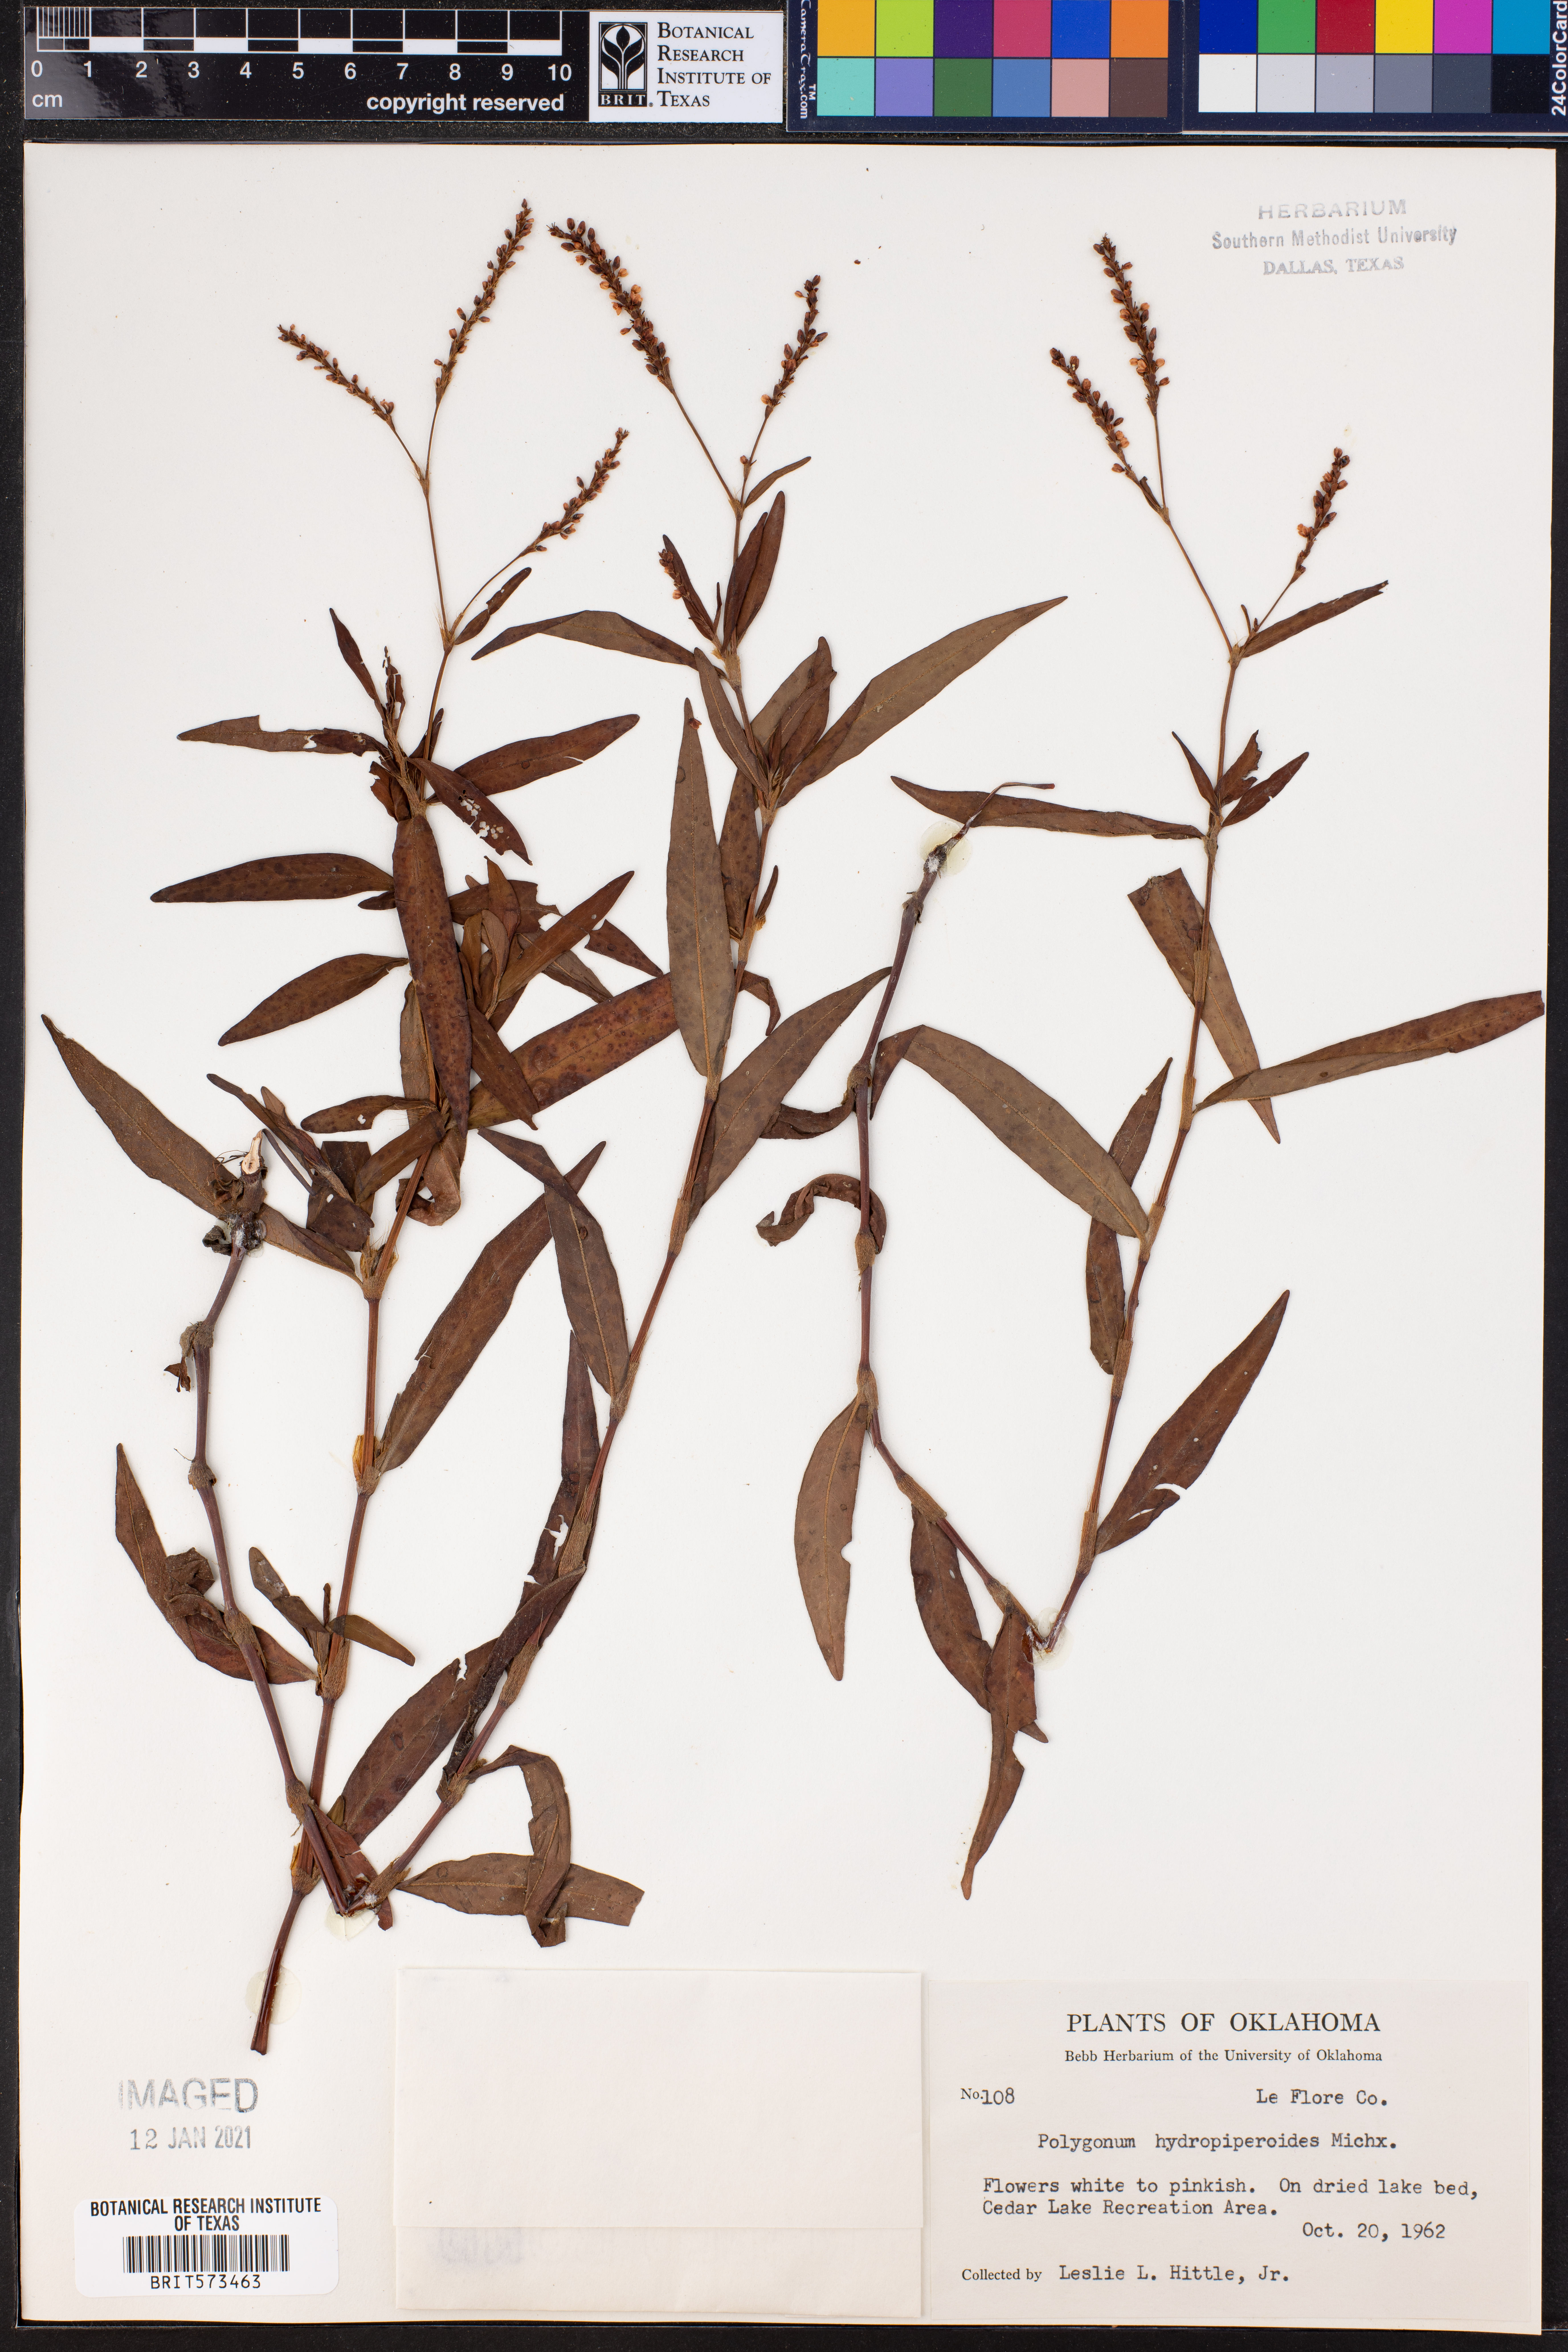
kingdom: Plantae
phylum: Tracheophyta
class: Magnoliopsida
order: Caryophyllales
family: Polygonaceae
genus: Persicaria
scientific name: Persicaria hydropiperoides
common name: Swamp smartweed
